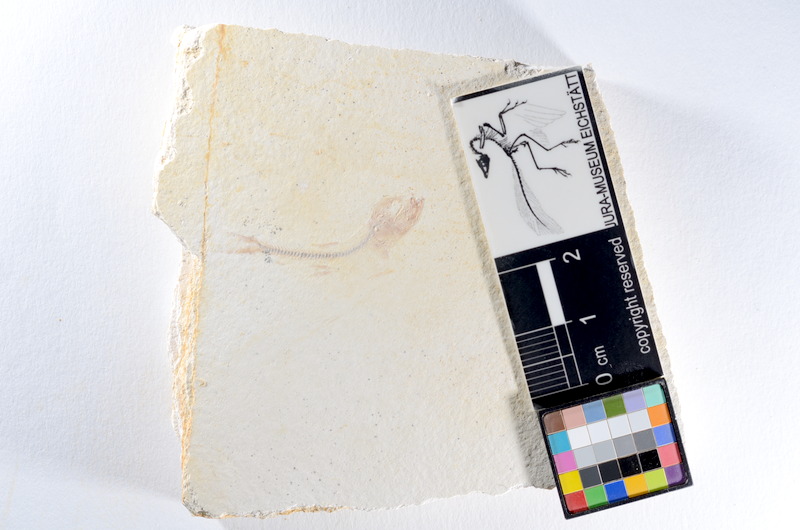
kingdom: Animalia
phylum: Chordata
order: Salmoniformes
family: Orthogonikleithridae
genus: Orthogonikleithrus
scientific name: Orthogonikleithrus hoelli
